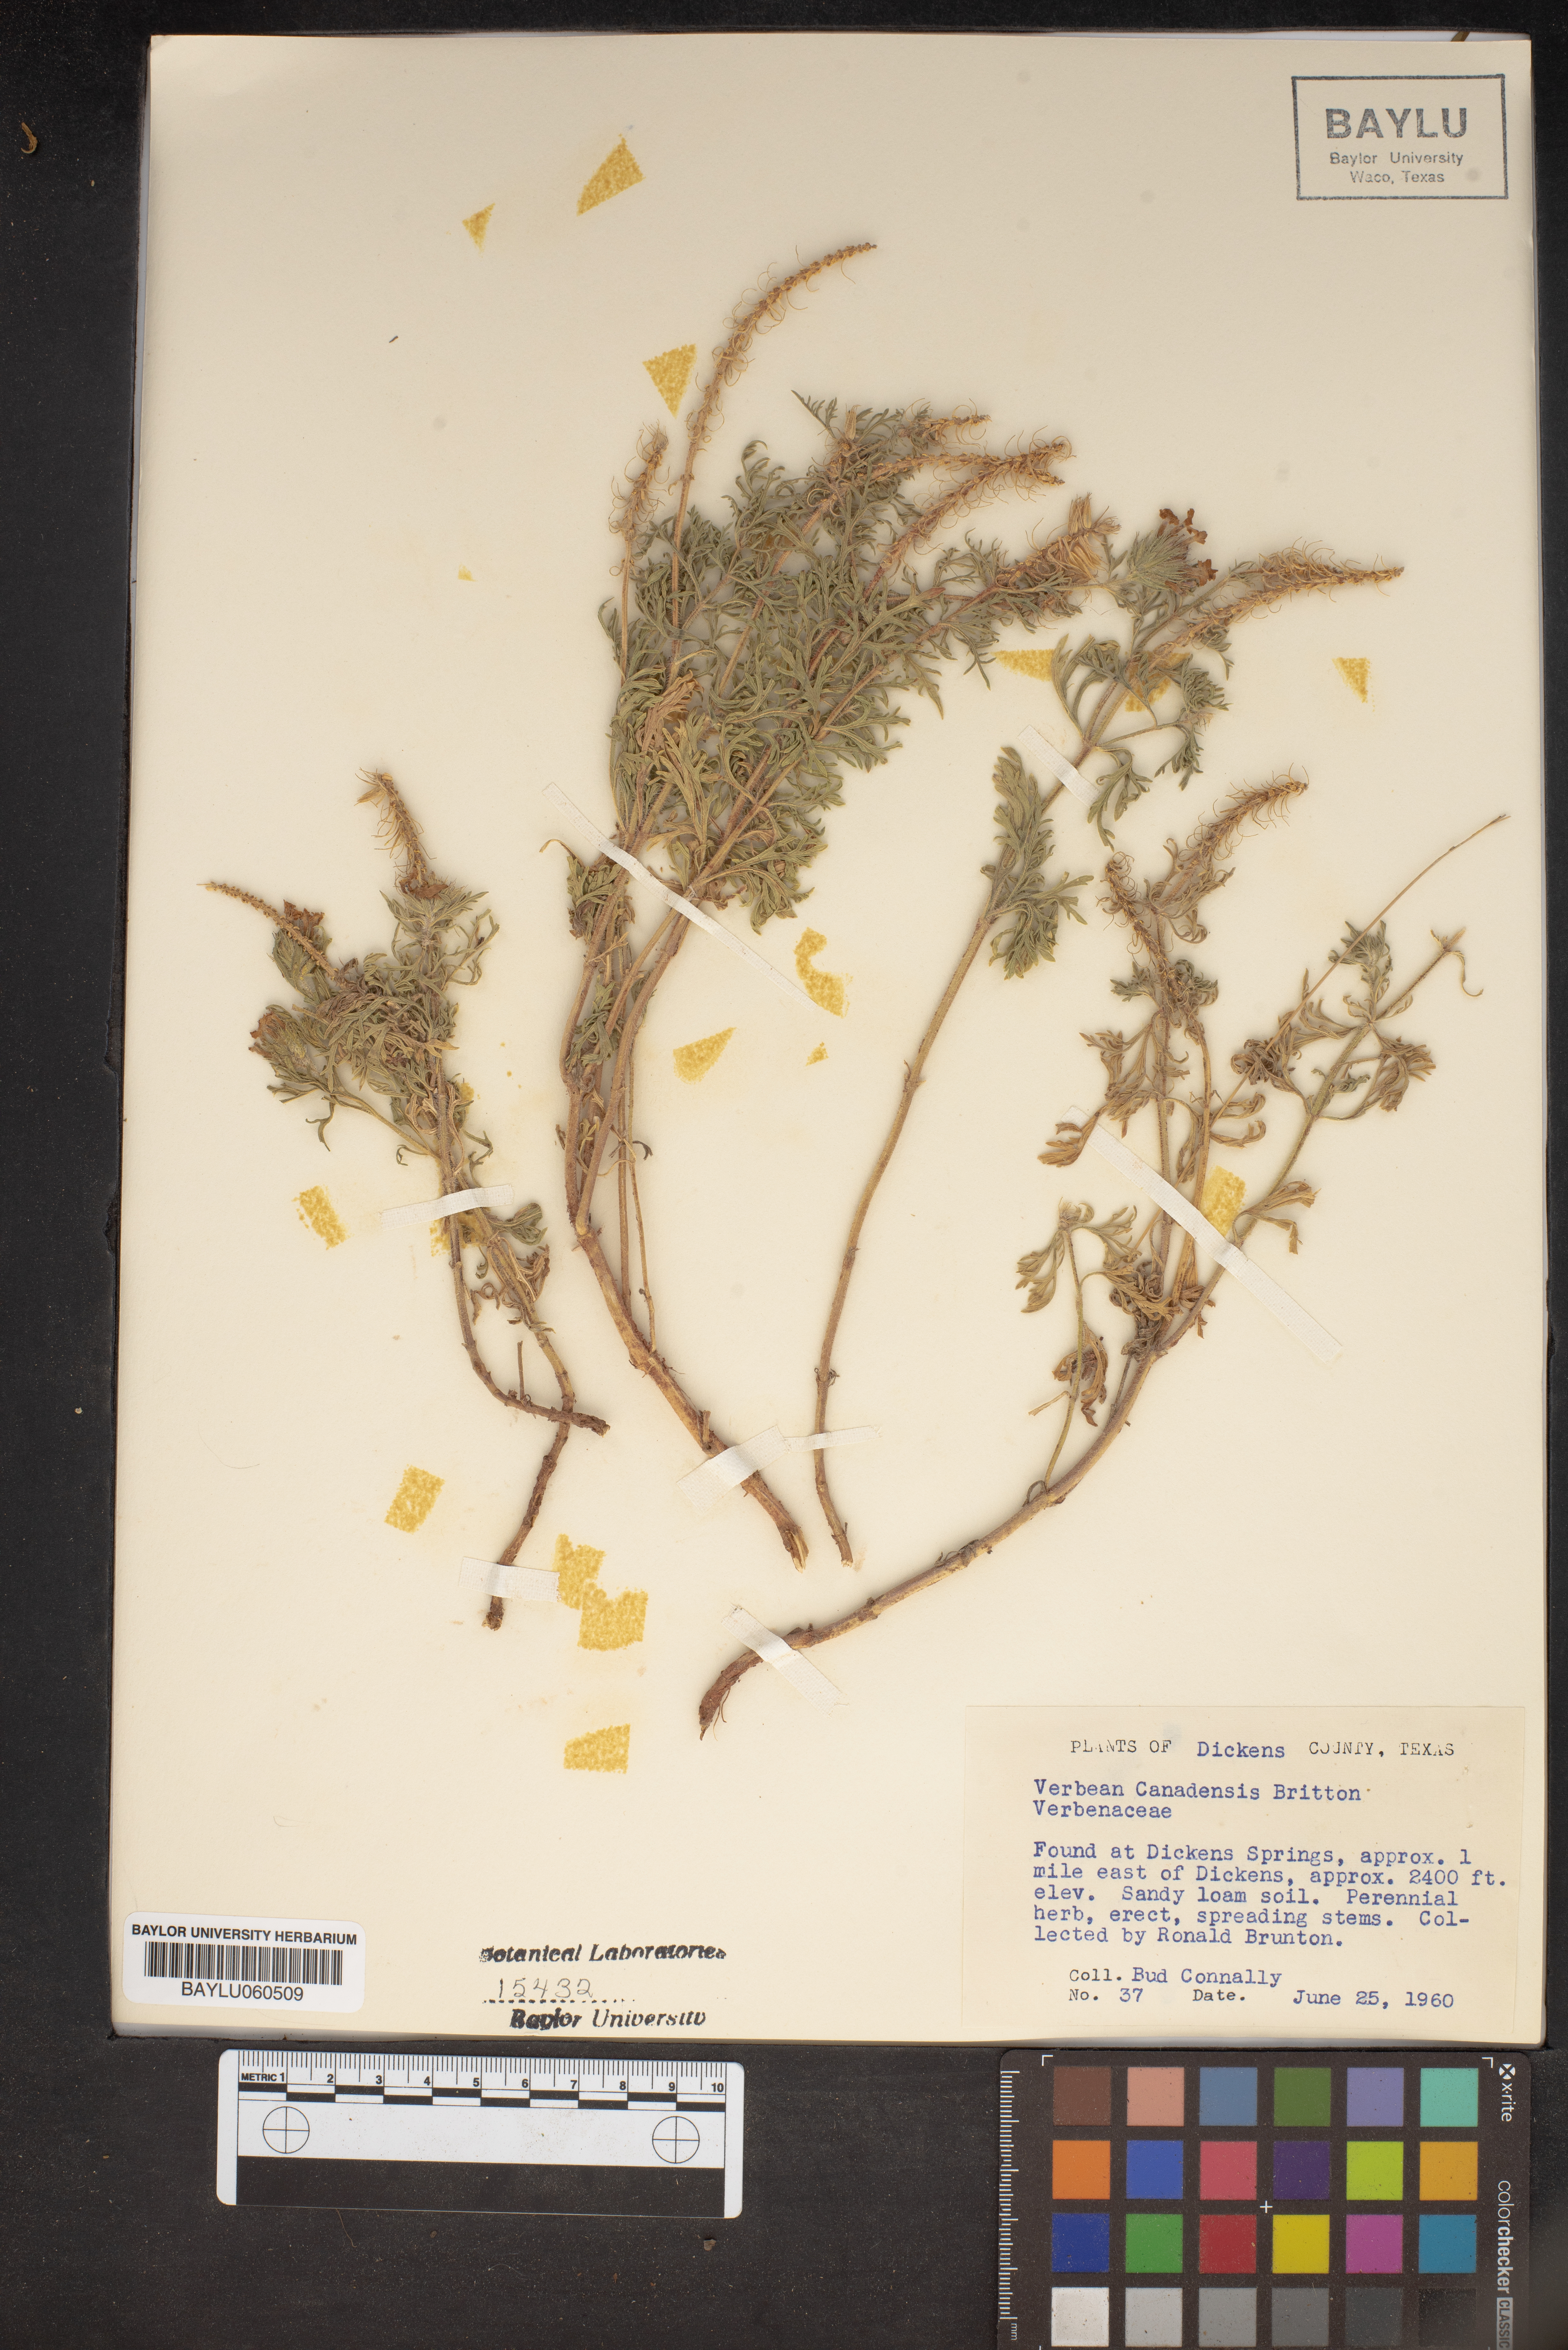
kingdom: Plantae
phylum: Tracheophyta
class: Magnoliopsida
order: Lamiales
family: Verbenaceae
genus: Verbena
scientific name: Verbena canadensis
